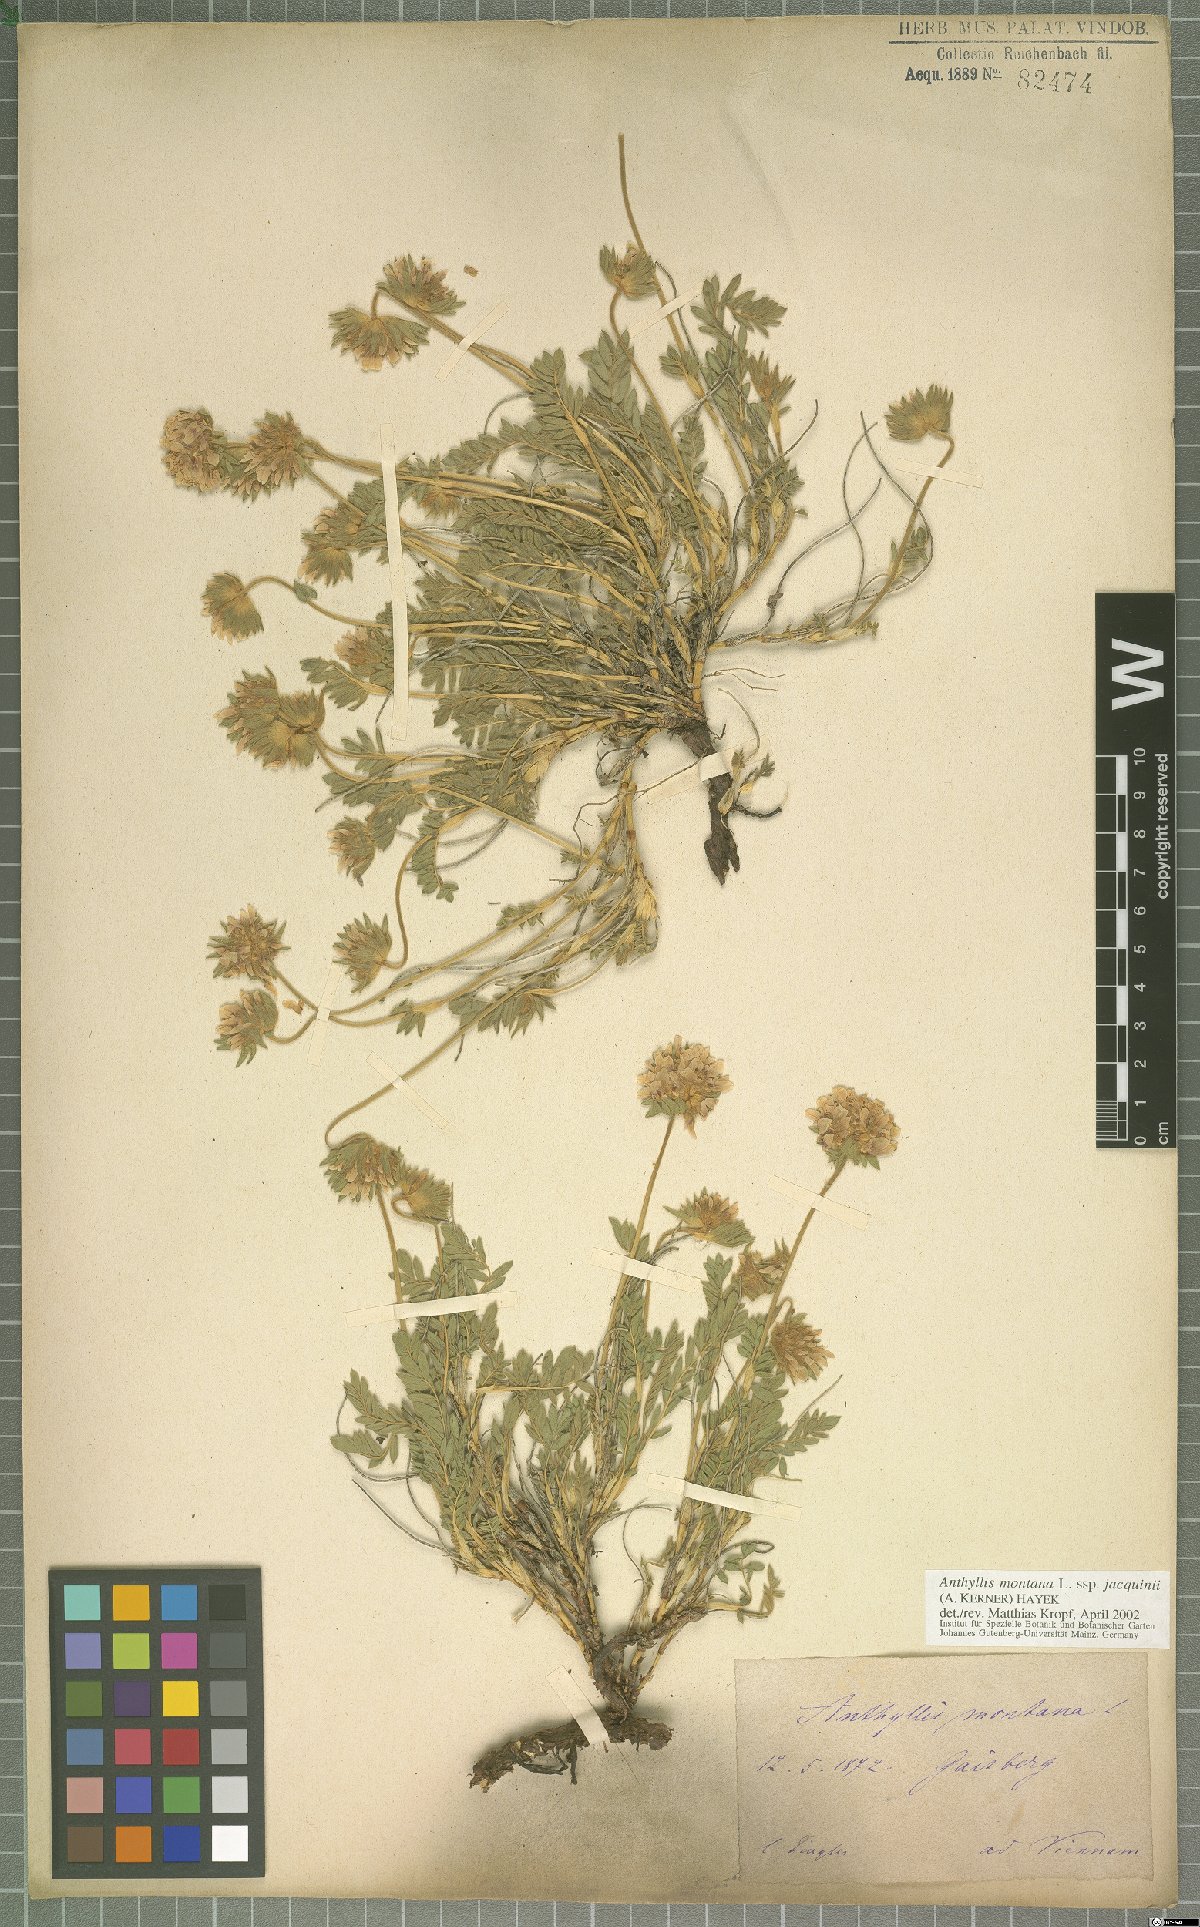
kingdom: Plantae
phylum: Tracheophyta
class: Magnoliopsida
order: Fabales
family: Fabaceae
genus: Anthyllis
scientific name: Anthyllis montana
